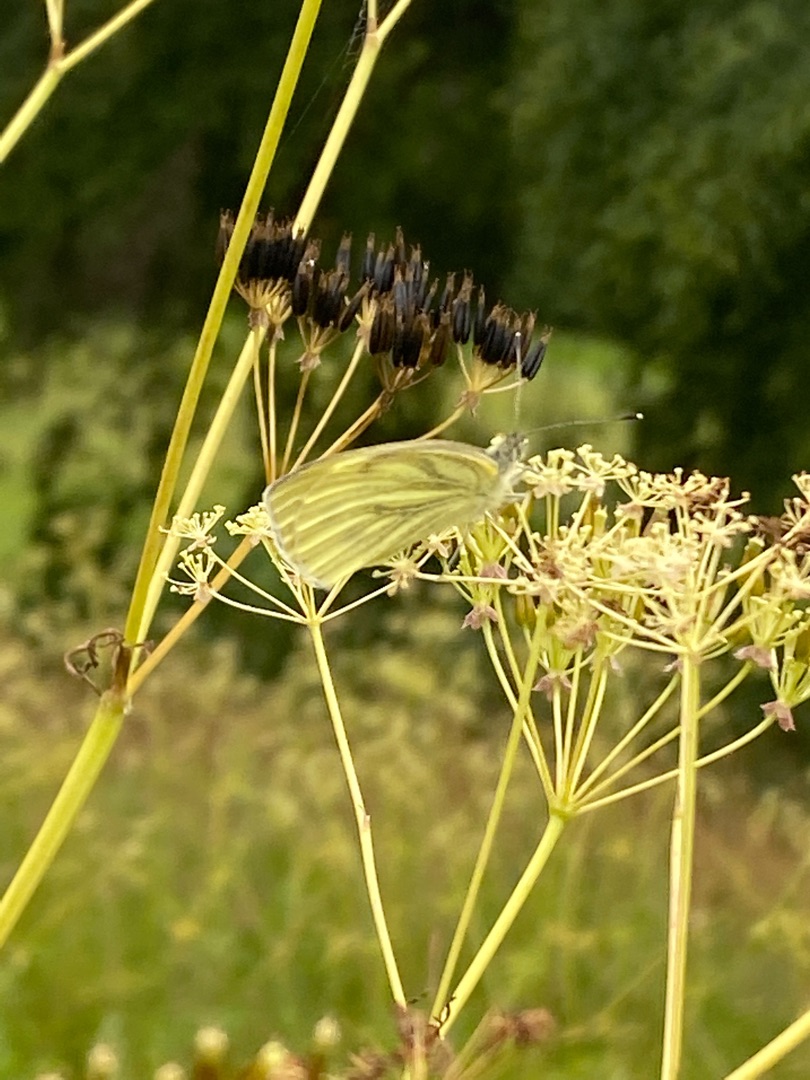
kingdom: Animalia
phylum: Arthropoda
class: Insecta
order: Lepidoptera
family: Pieridae
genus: Pieris
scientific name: Pieris napi
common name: Grønåret kålsommerfugl
